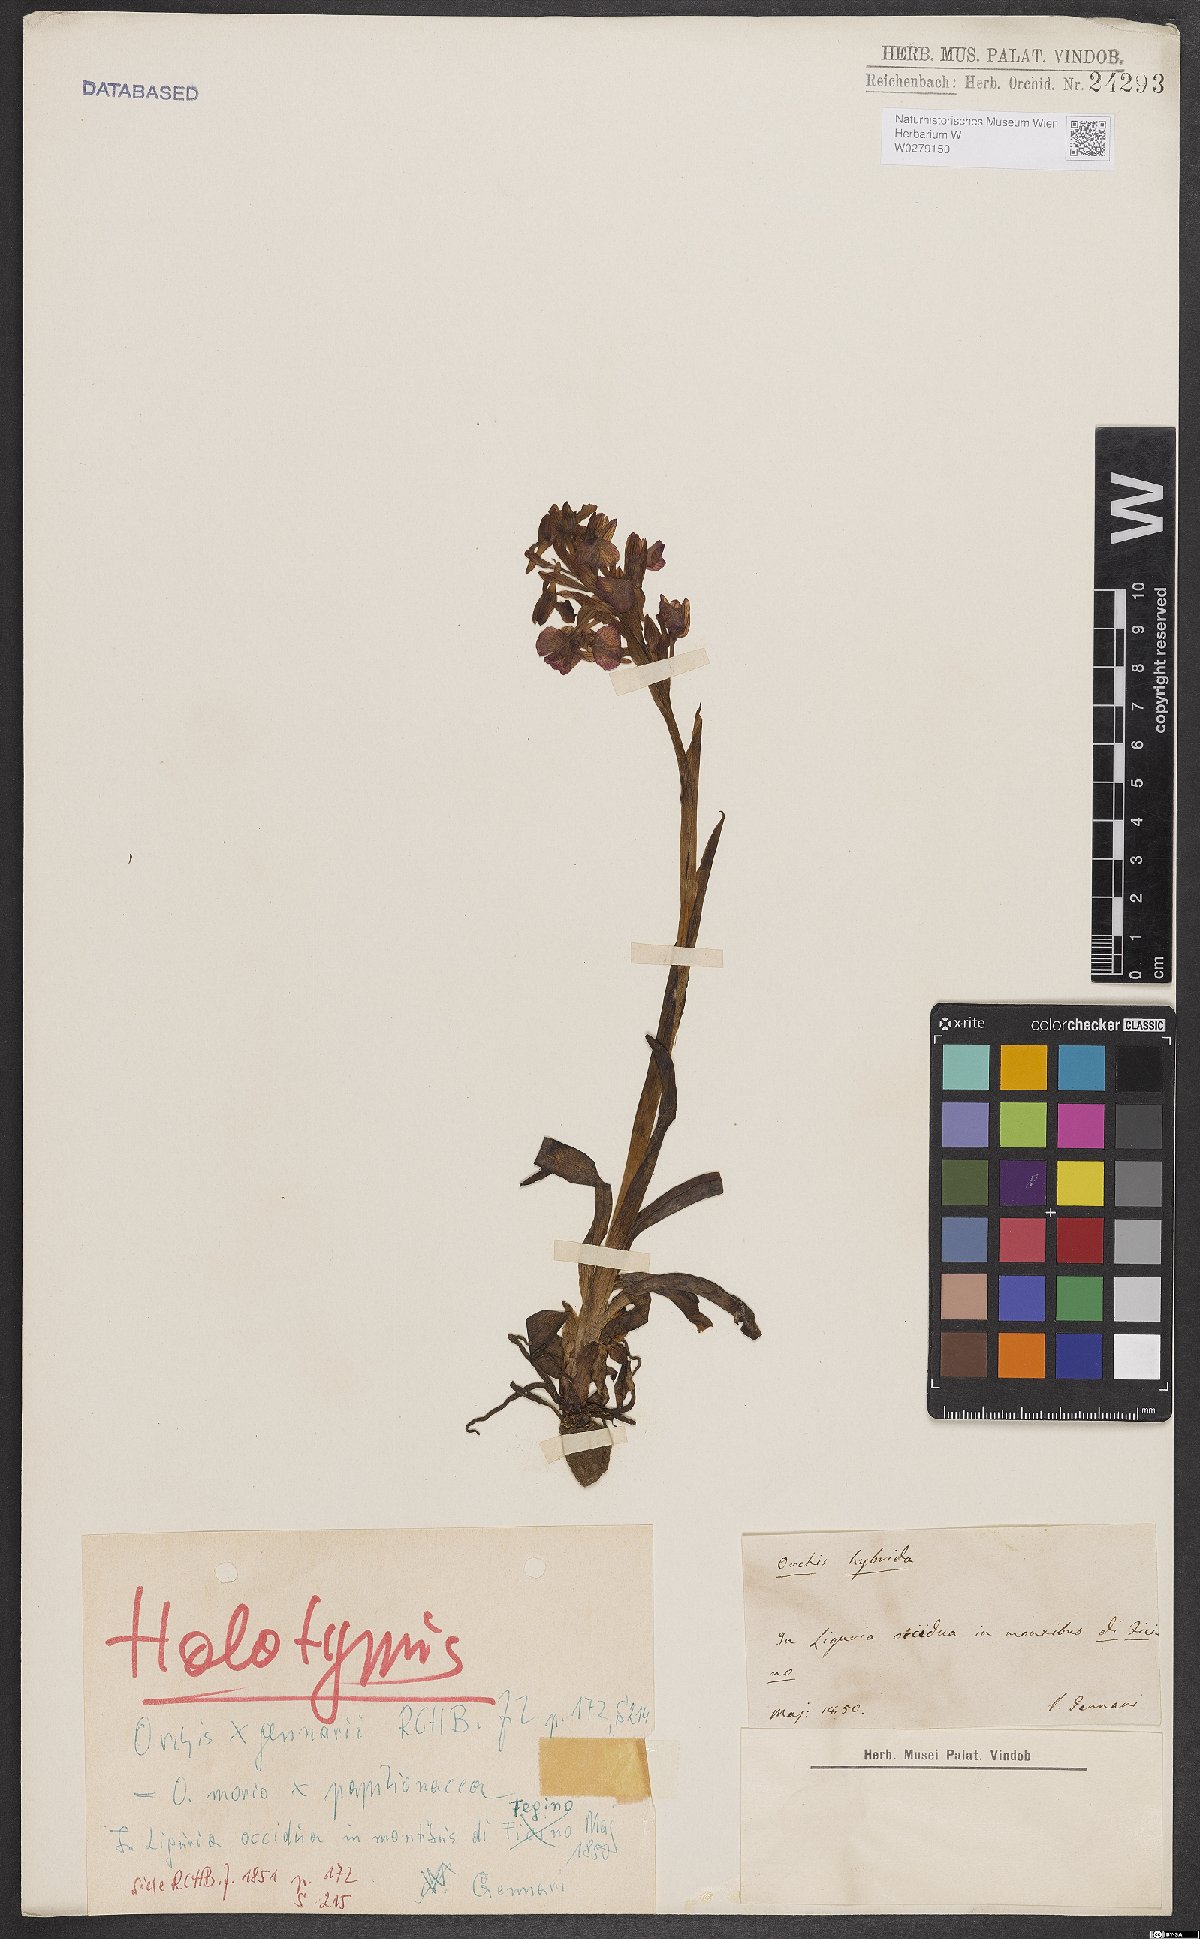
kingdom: Plantae
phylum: Tracheophyta
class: Liliopsida
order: Asparagales
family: Orchidaceae
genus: Anacamptis
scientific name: Anacamptis nicodemi
